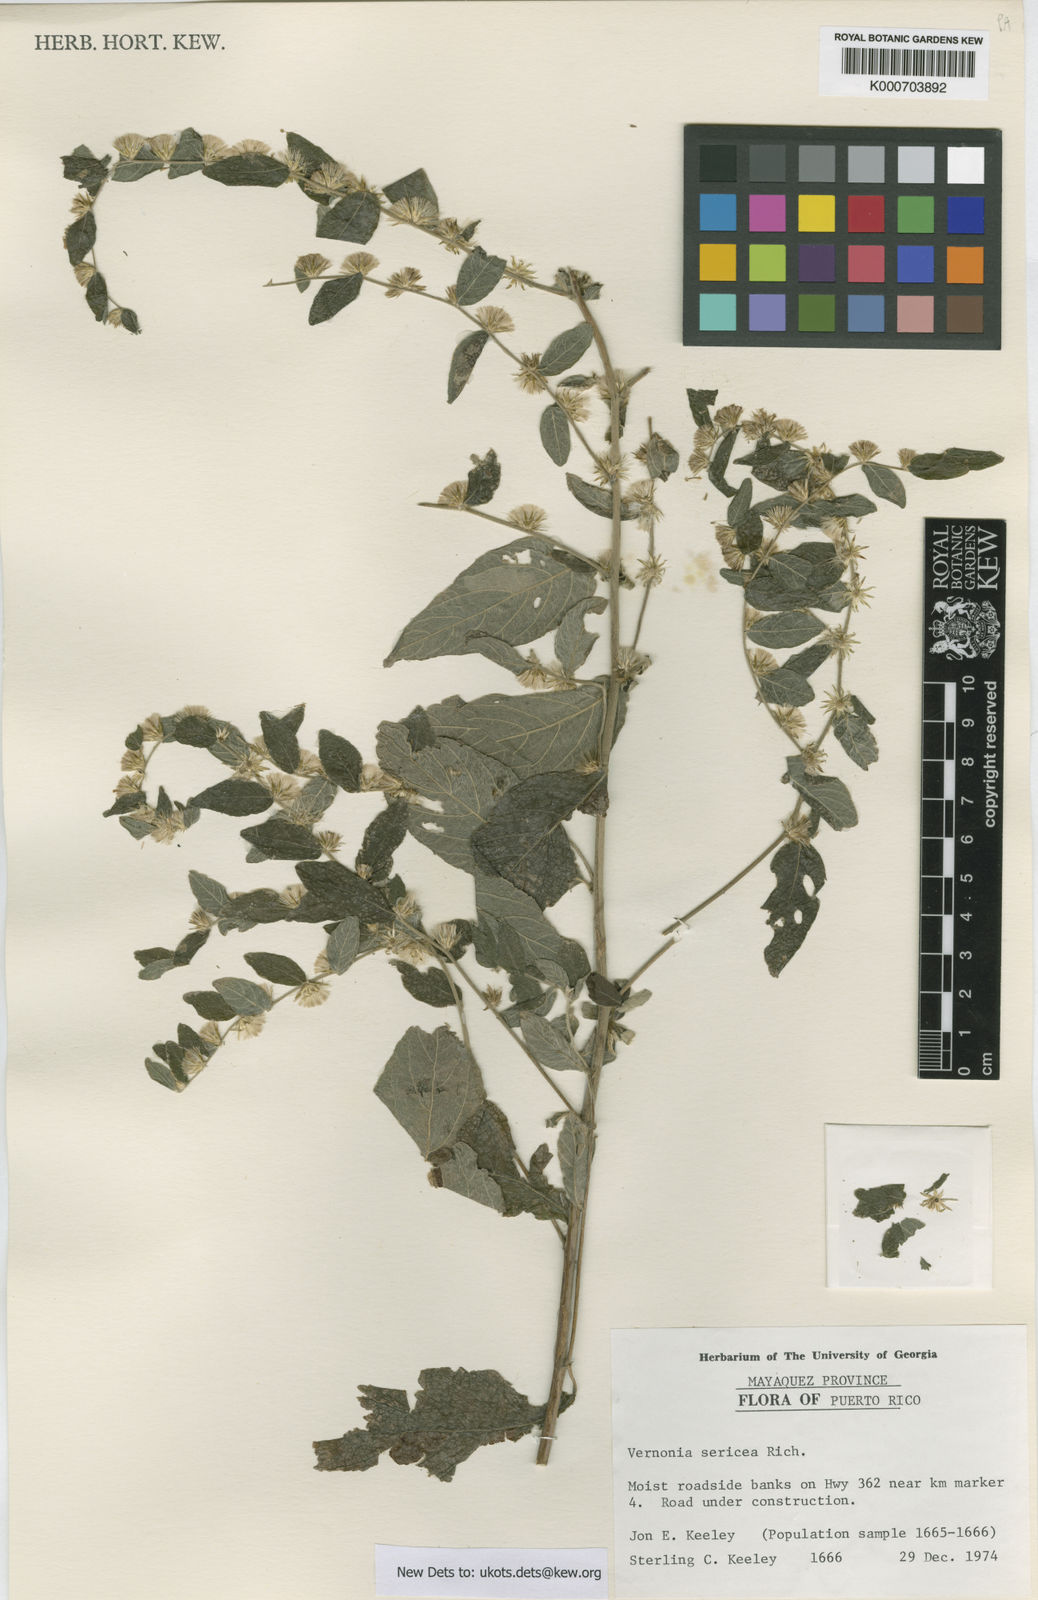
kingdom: Plantae
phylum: Tracheophyta
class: Magnoliopsida
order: Asterales
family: Asteraceae
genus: Lepidaploa
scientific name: Lepidaploa sericea
